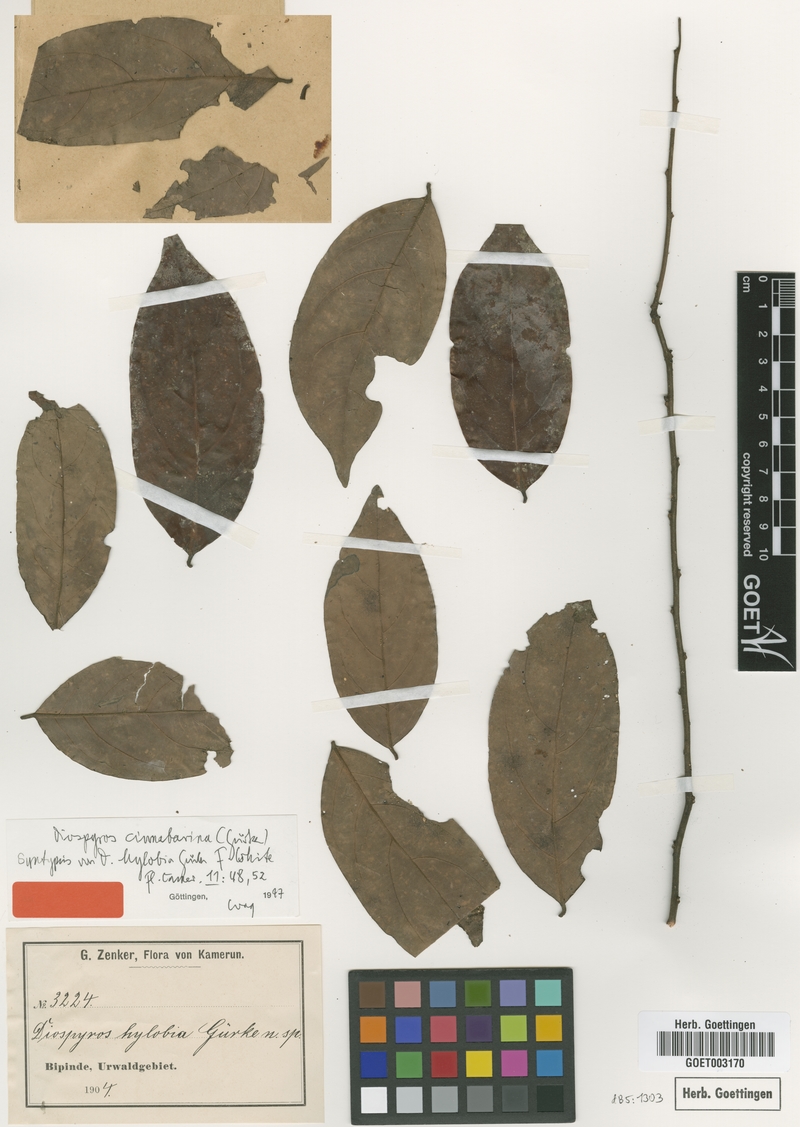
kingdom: Plantae
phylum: Tracheophyta
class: Magnoliopsida
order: Ericales
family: Ebenaceae
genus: Diospyros
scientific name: Diospyros cinnabarina
